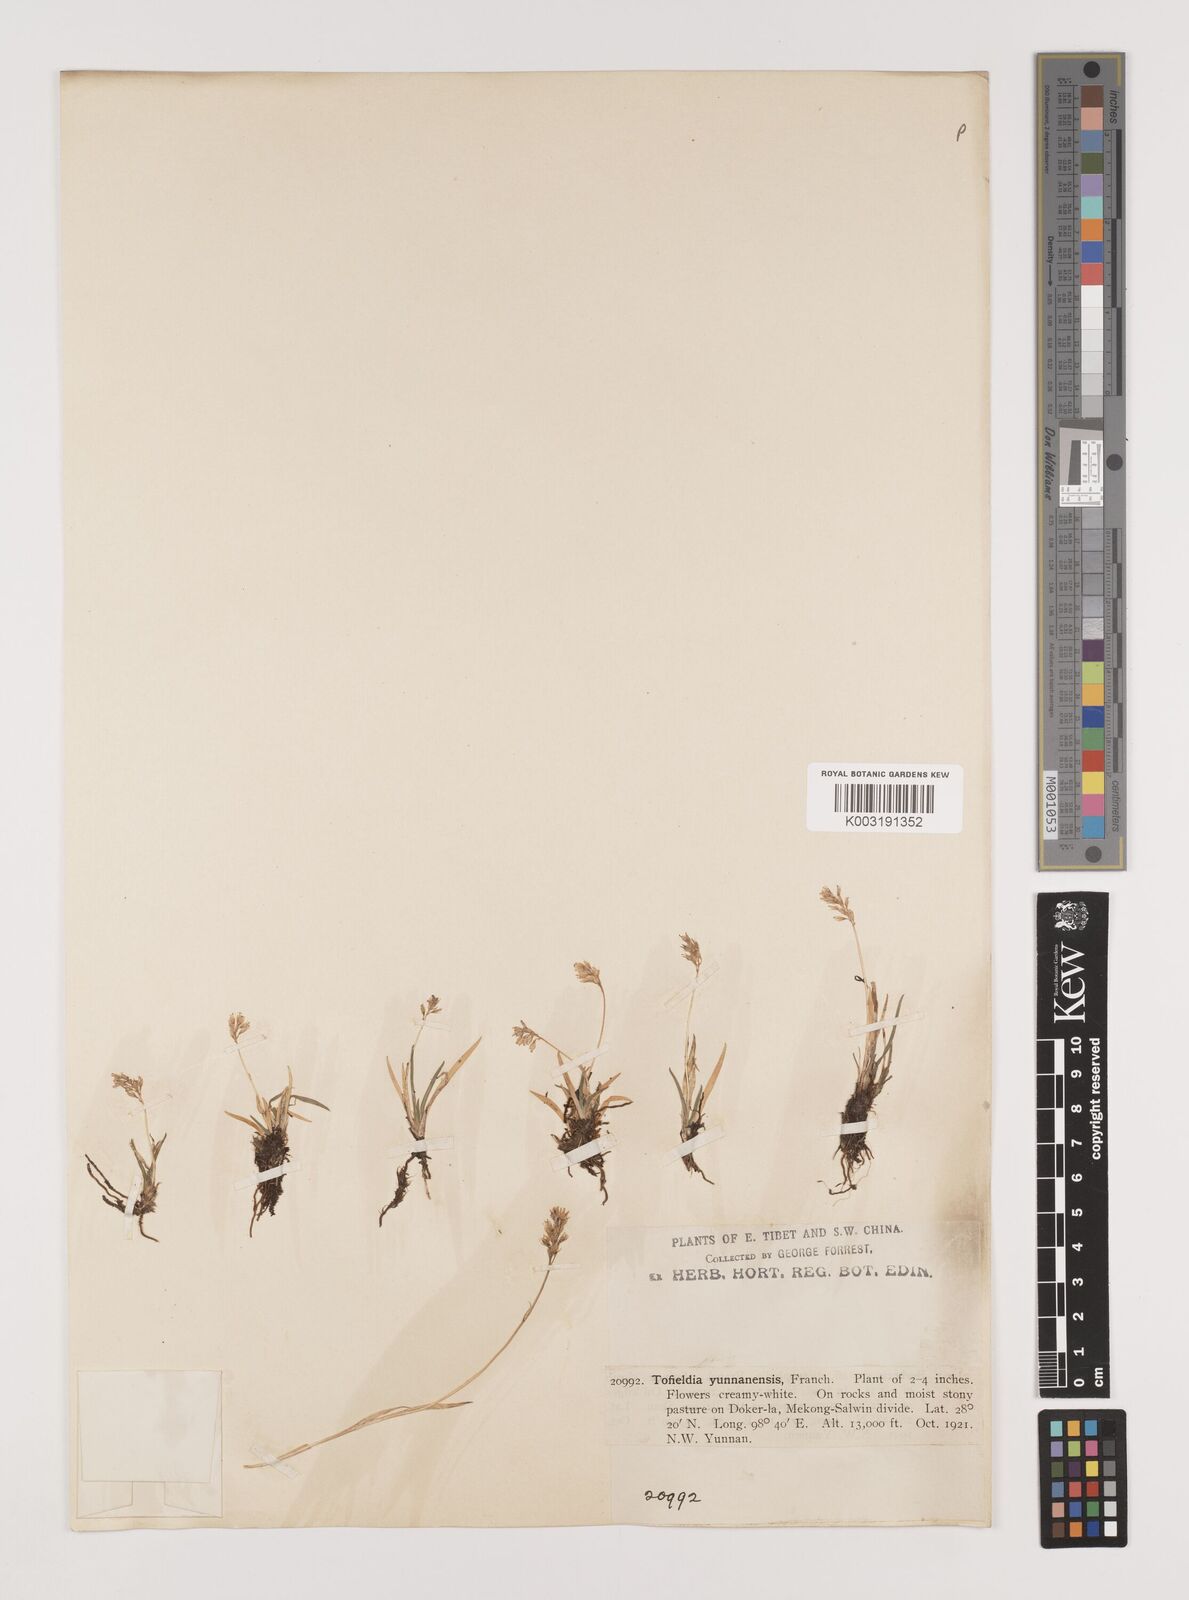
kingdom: Plantae
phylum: Tracheophyta
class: Liliopsida
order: Alismatales
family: Tofieldiaceae
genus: Tofieldia
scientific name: Tofieldia
